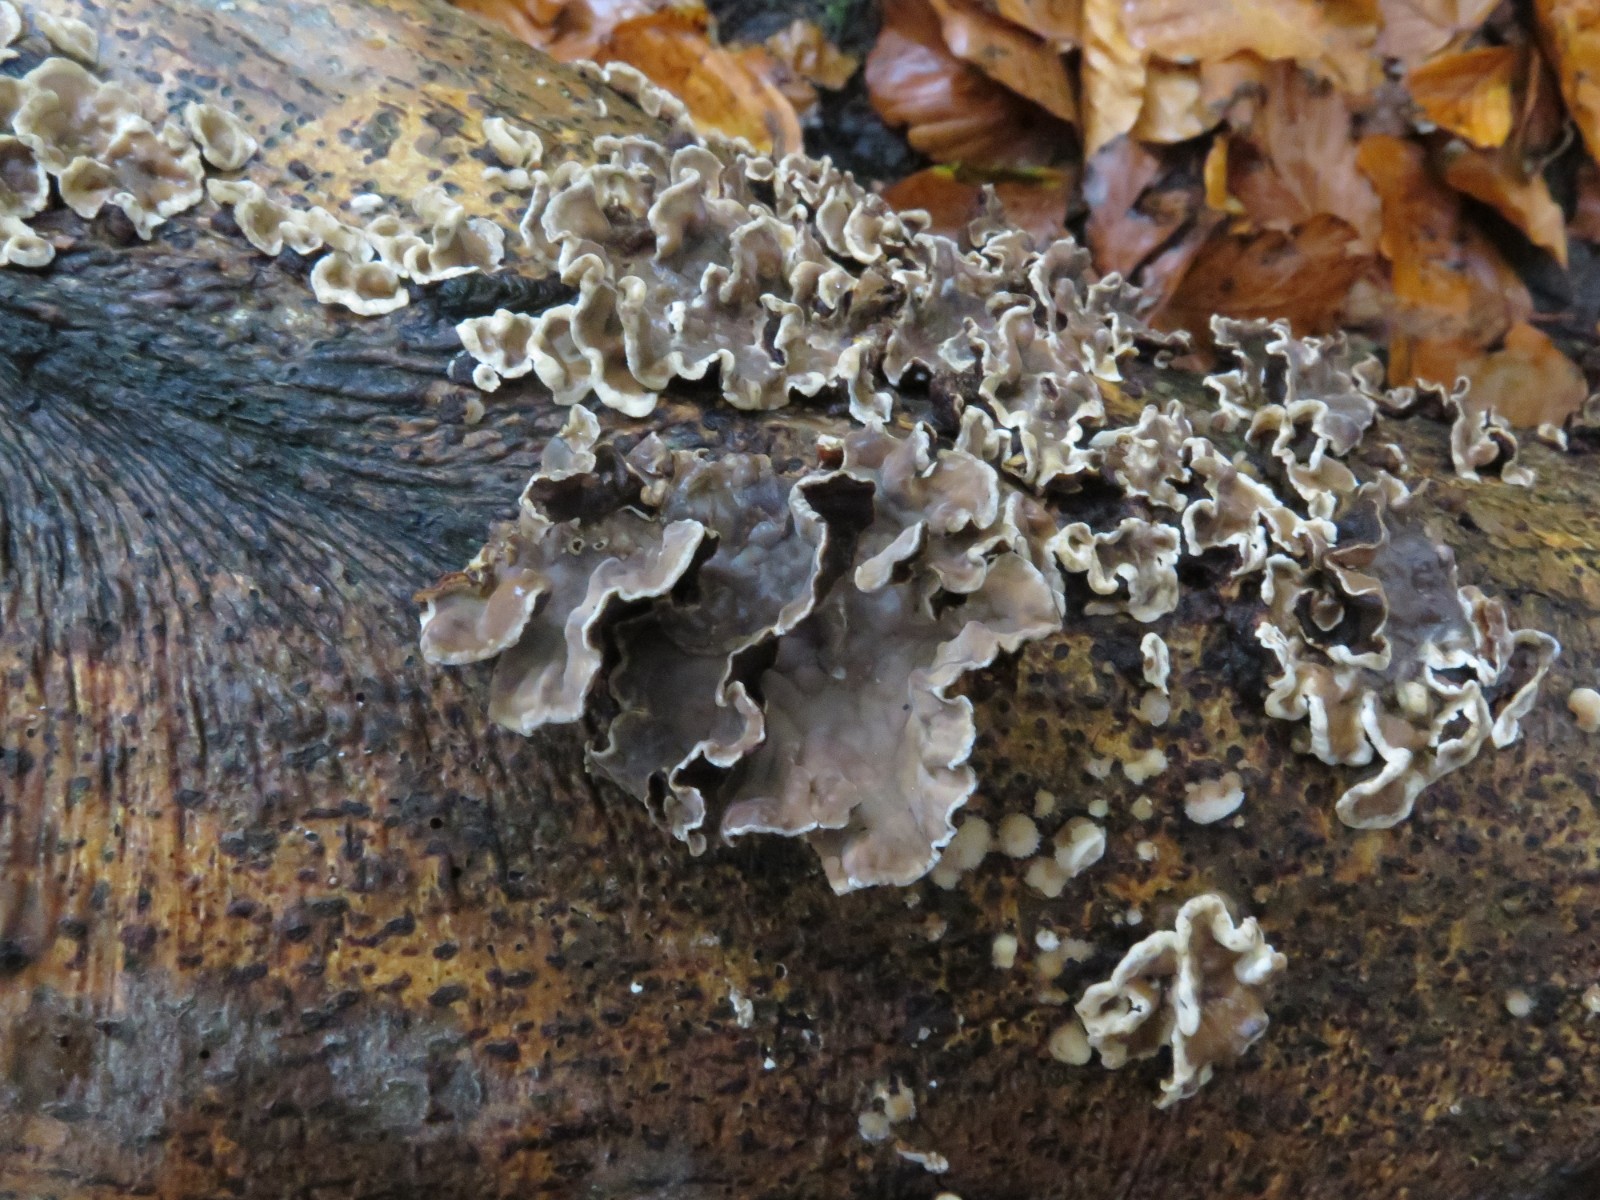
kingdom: Fungi
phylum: Basidiomycota
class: Agaricomycetes
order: Russulales
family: Hericiaceae
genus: Laxitextum
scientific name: Laxitextum bicolor
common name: tvefarvet filtskind
